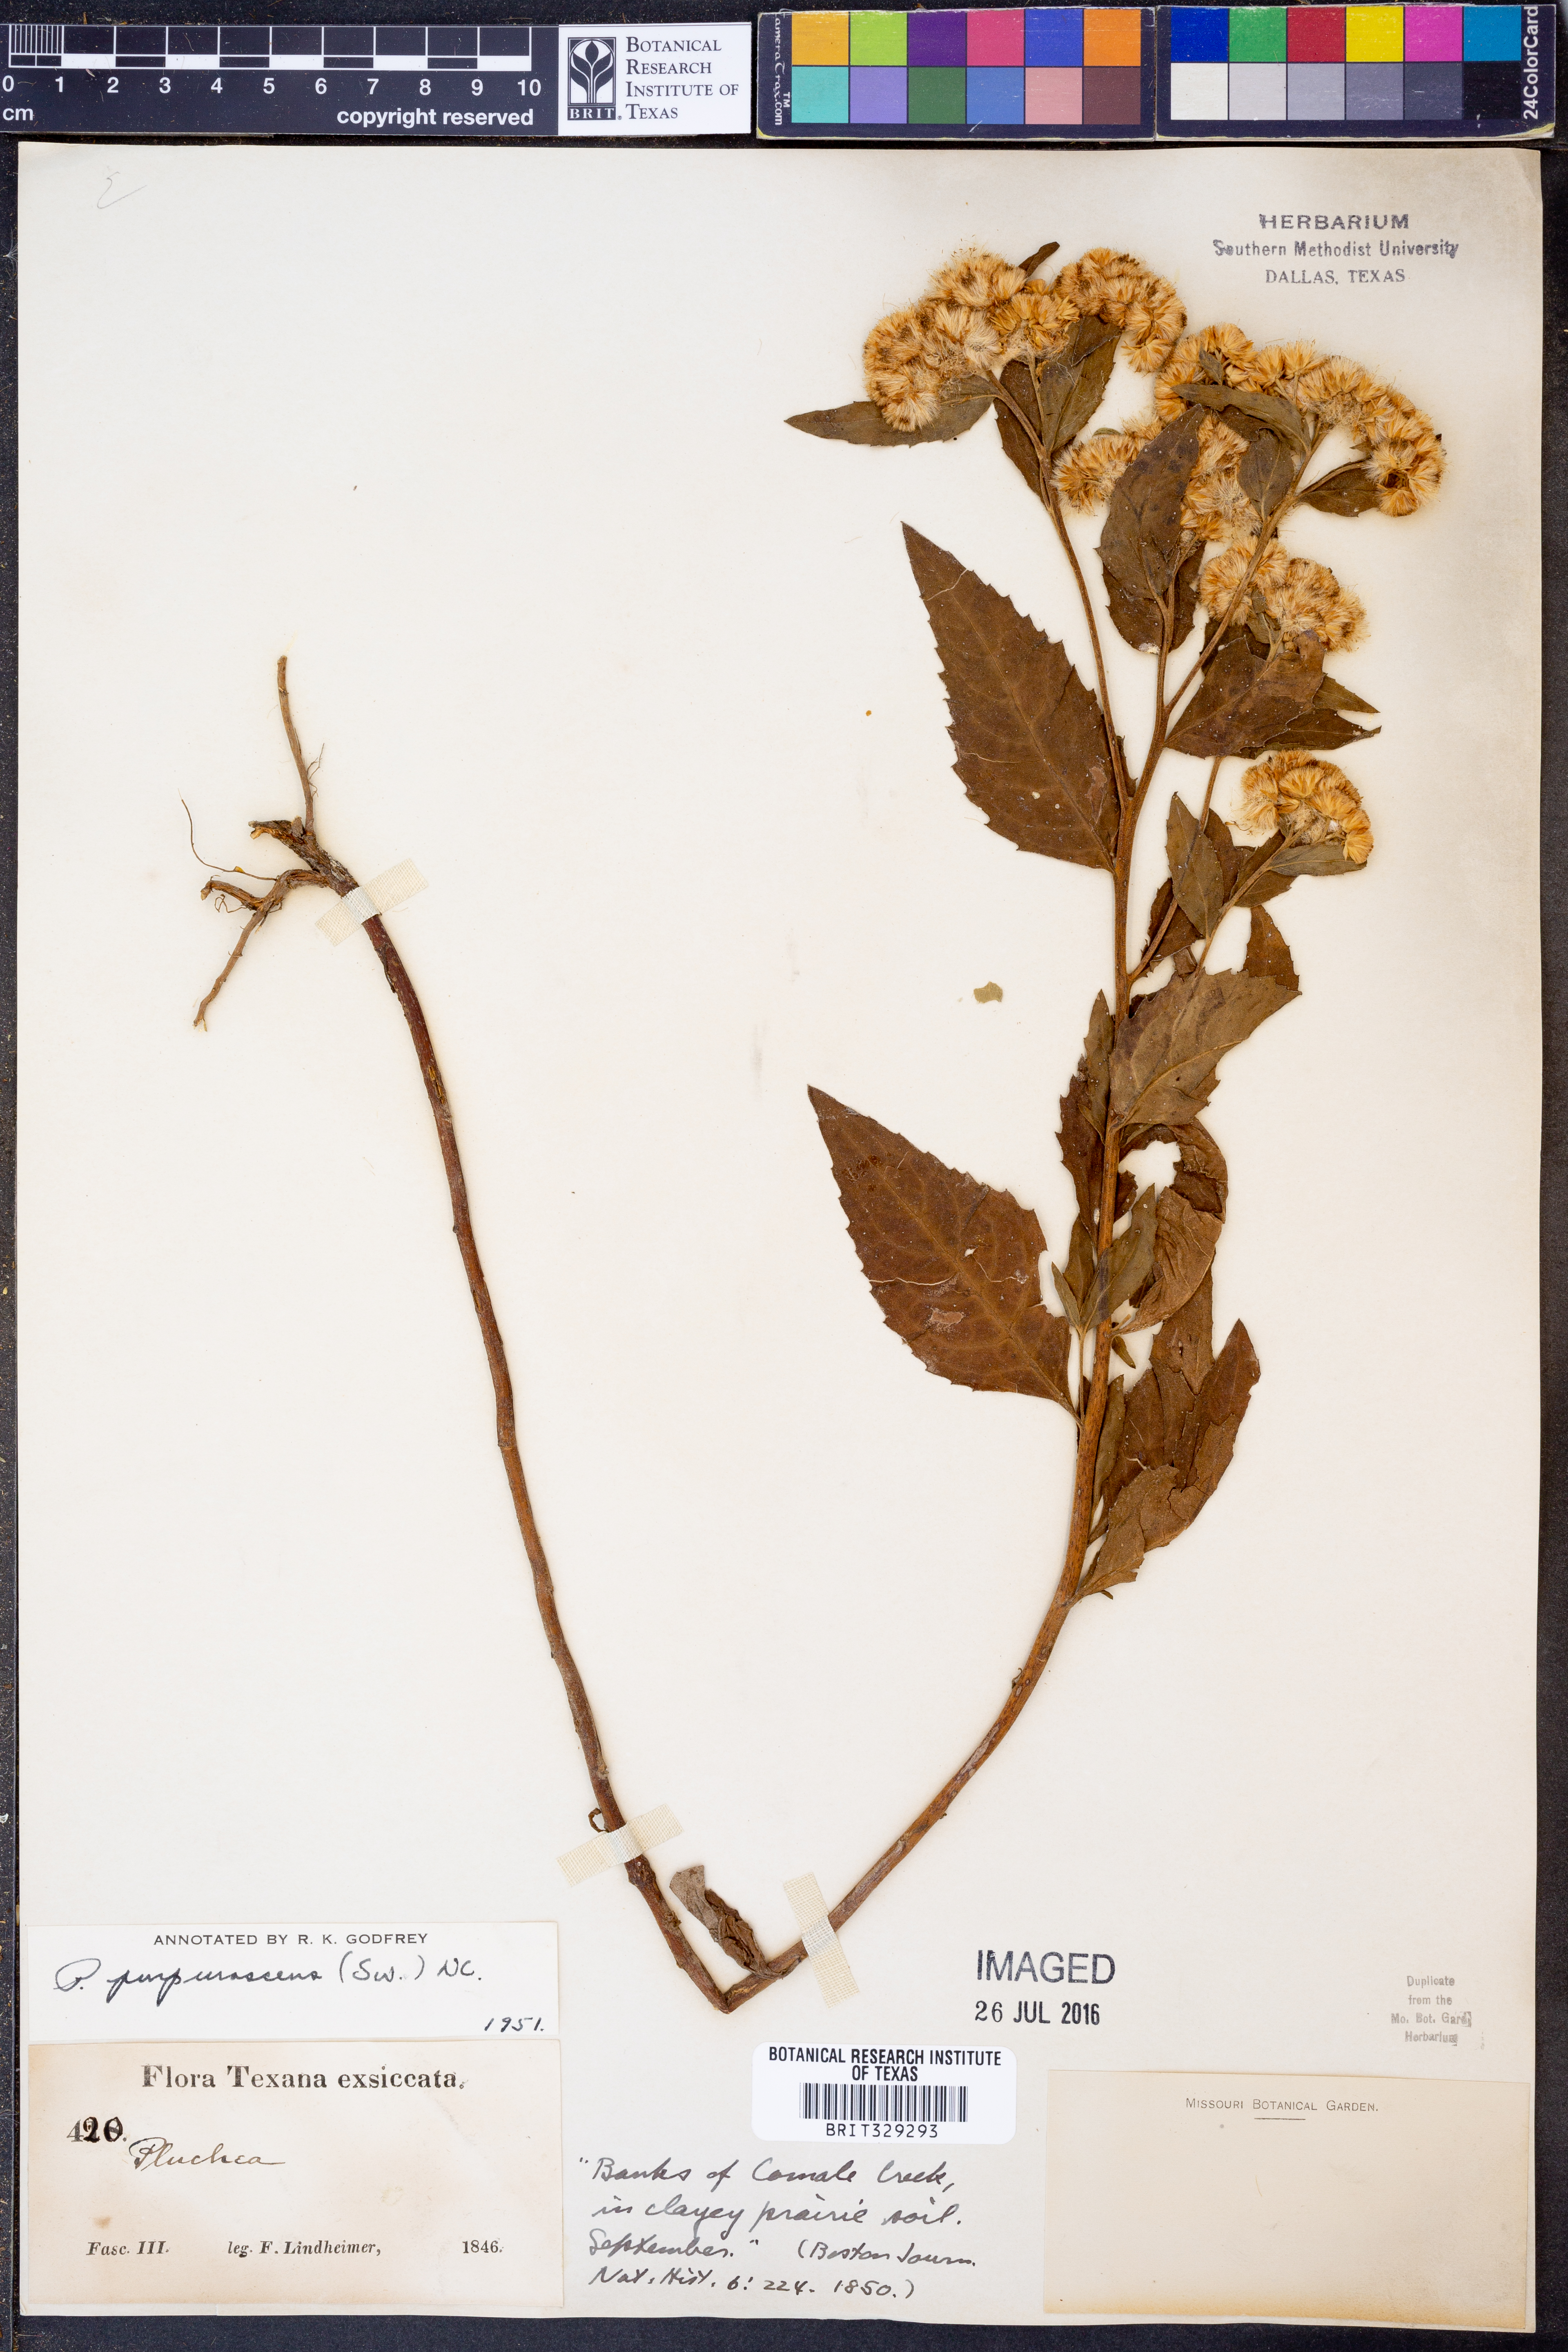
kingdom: Plantae
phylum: Tracheophyta
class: Magnoliopsida
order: Asterales
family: Asteraceae
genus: Pluchea
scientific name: Pluchea odorata
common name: Saltmarsh fleabane
